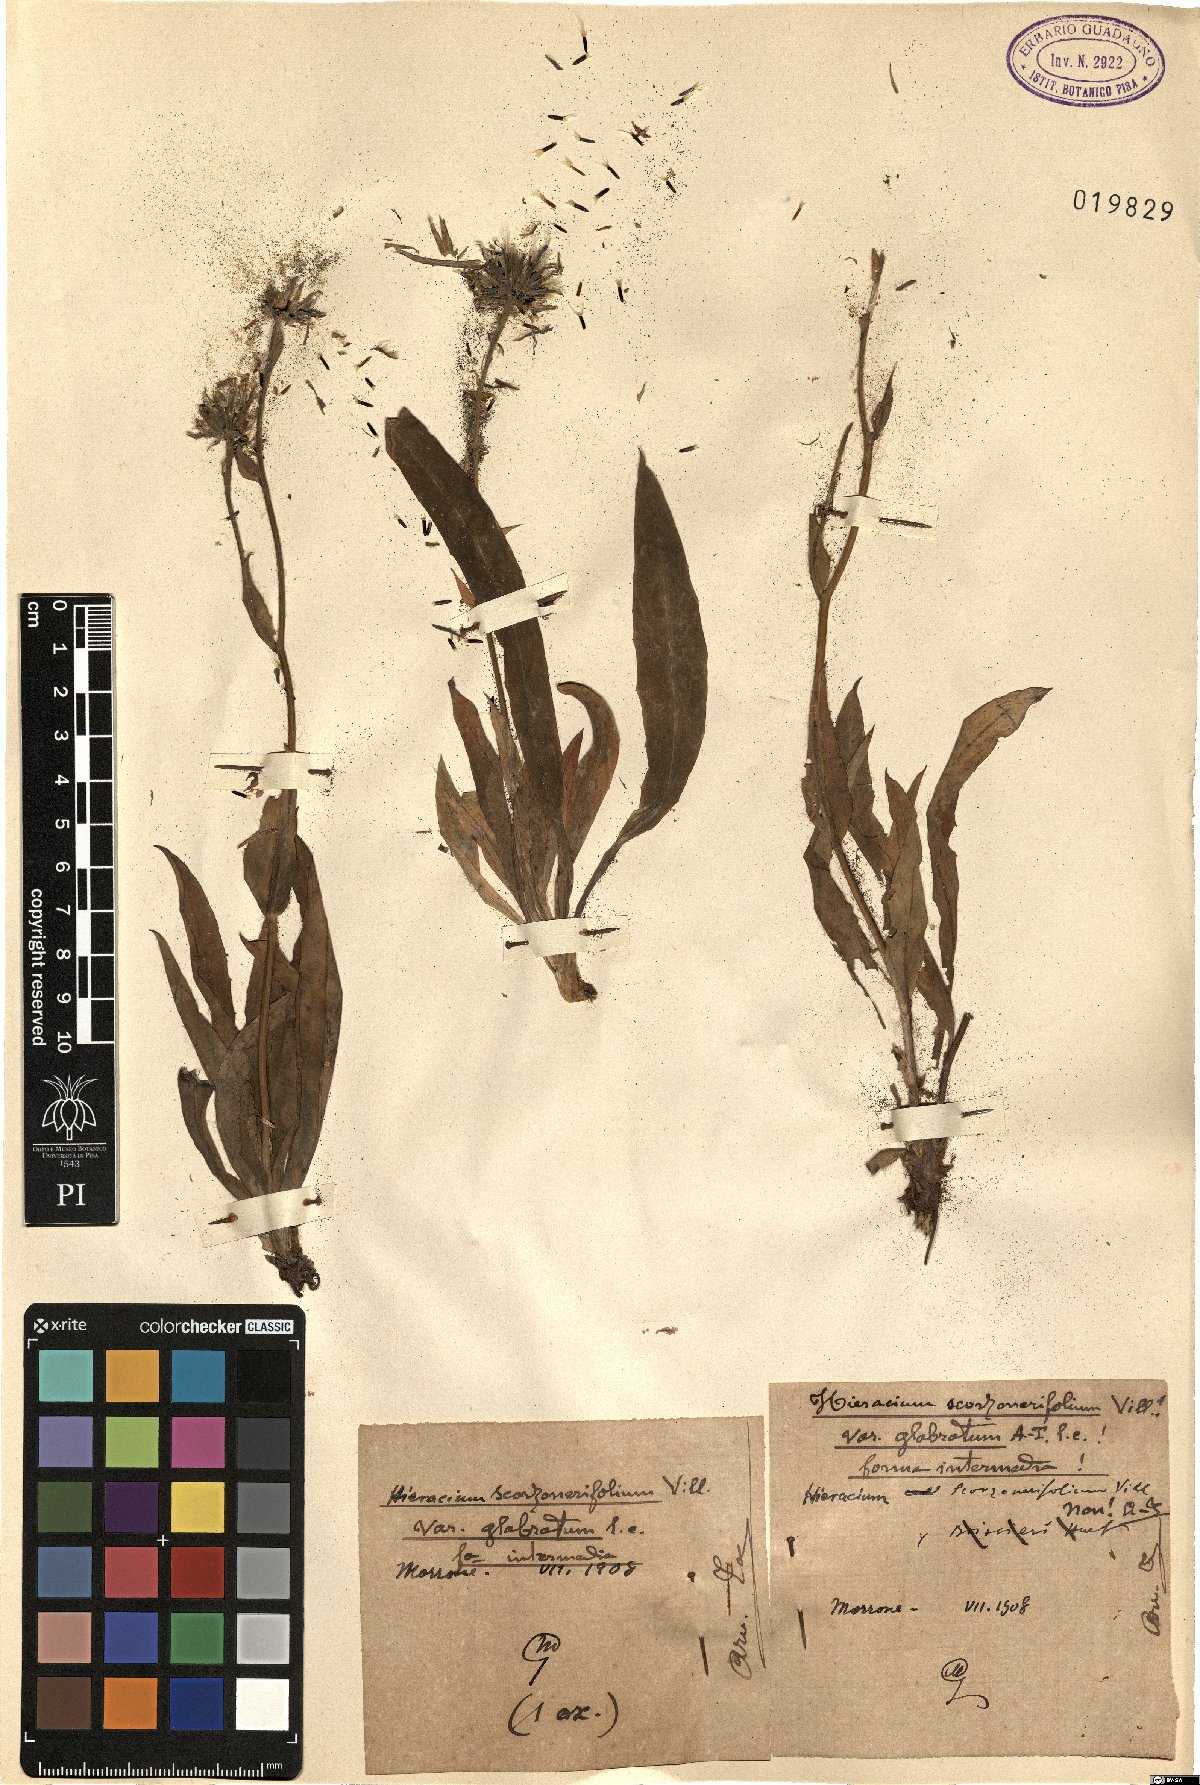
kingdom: Plantae
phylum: Tracheophyta
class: Magnoliopsida
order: Asterales
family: Asteraceae
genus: Hieracium
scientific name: Hieracium scorzonerifolium
